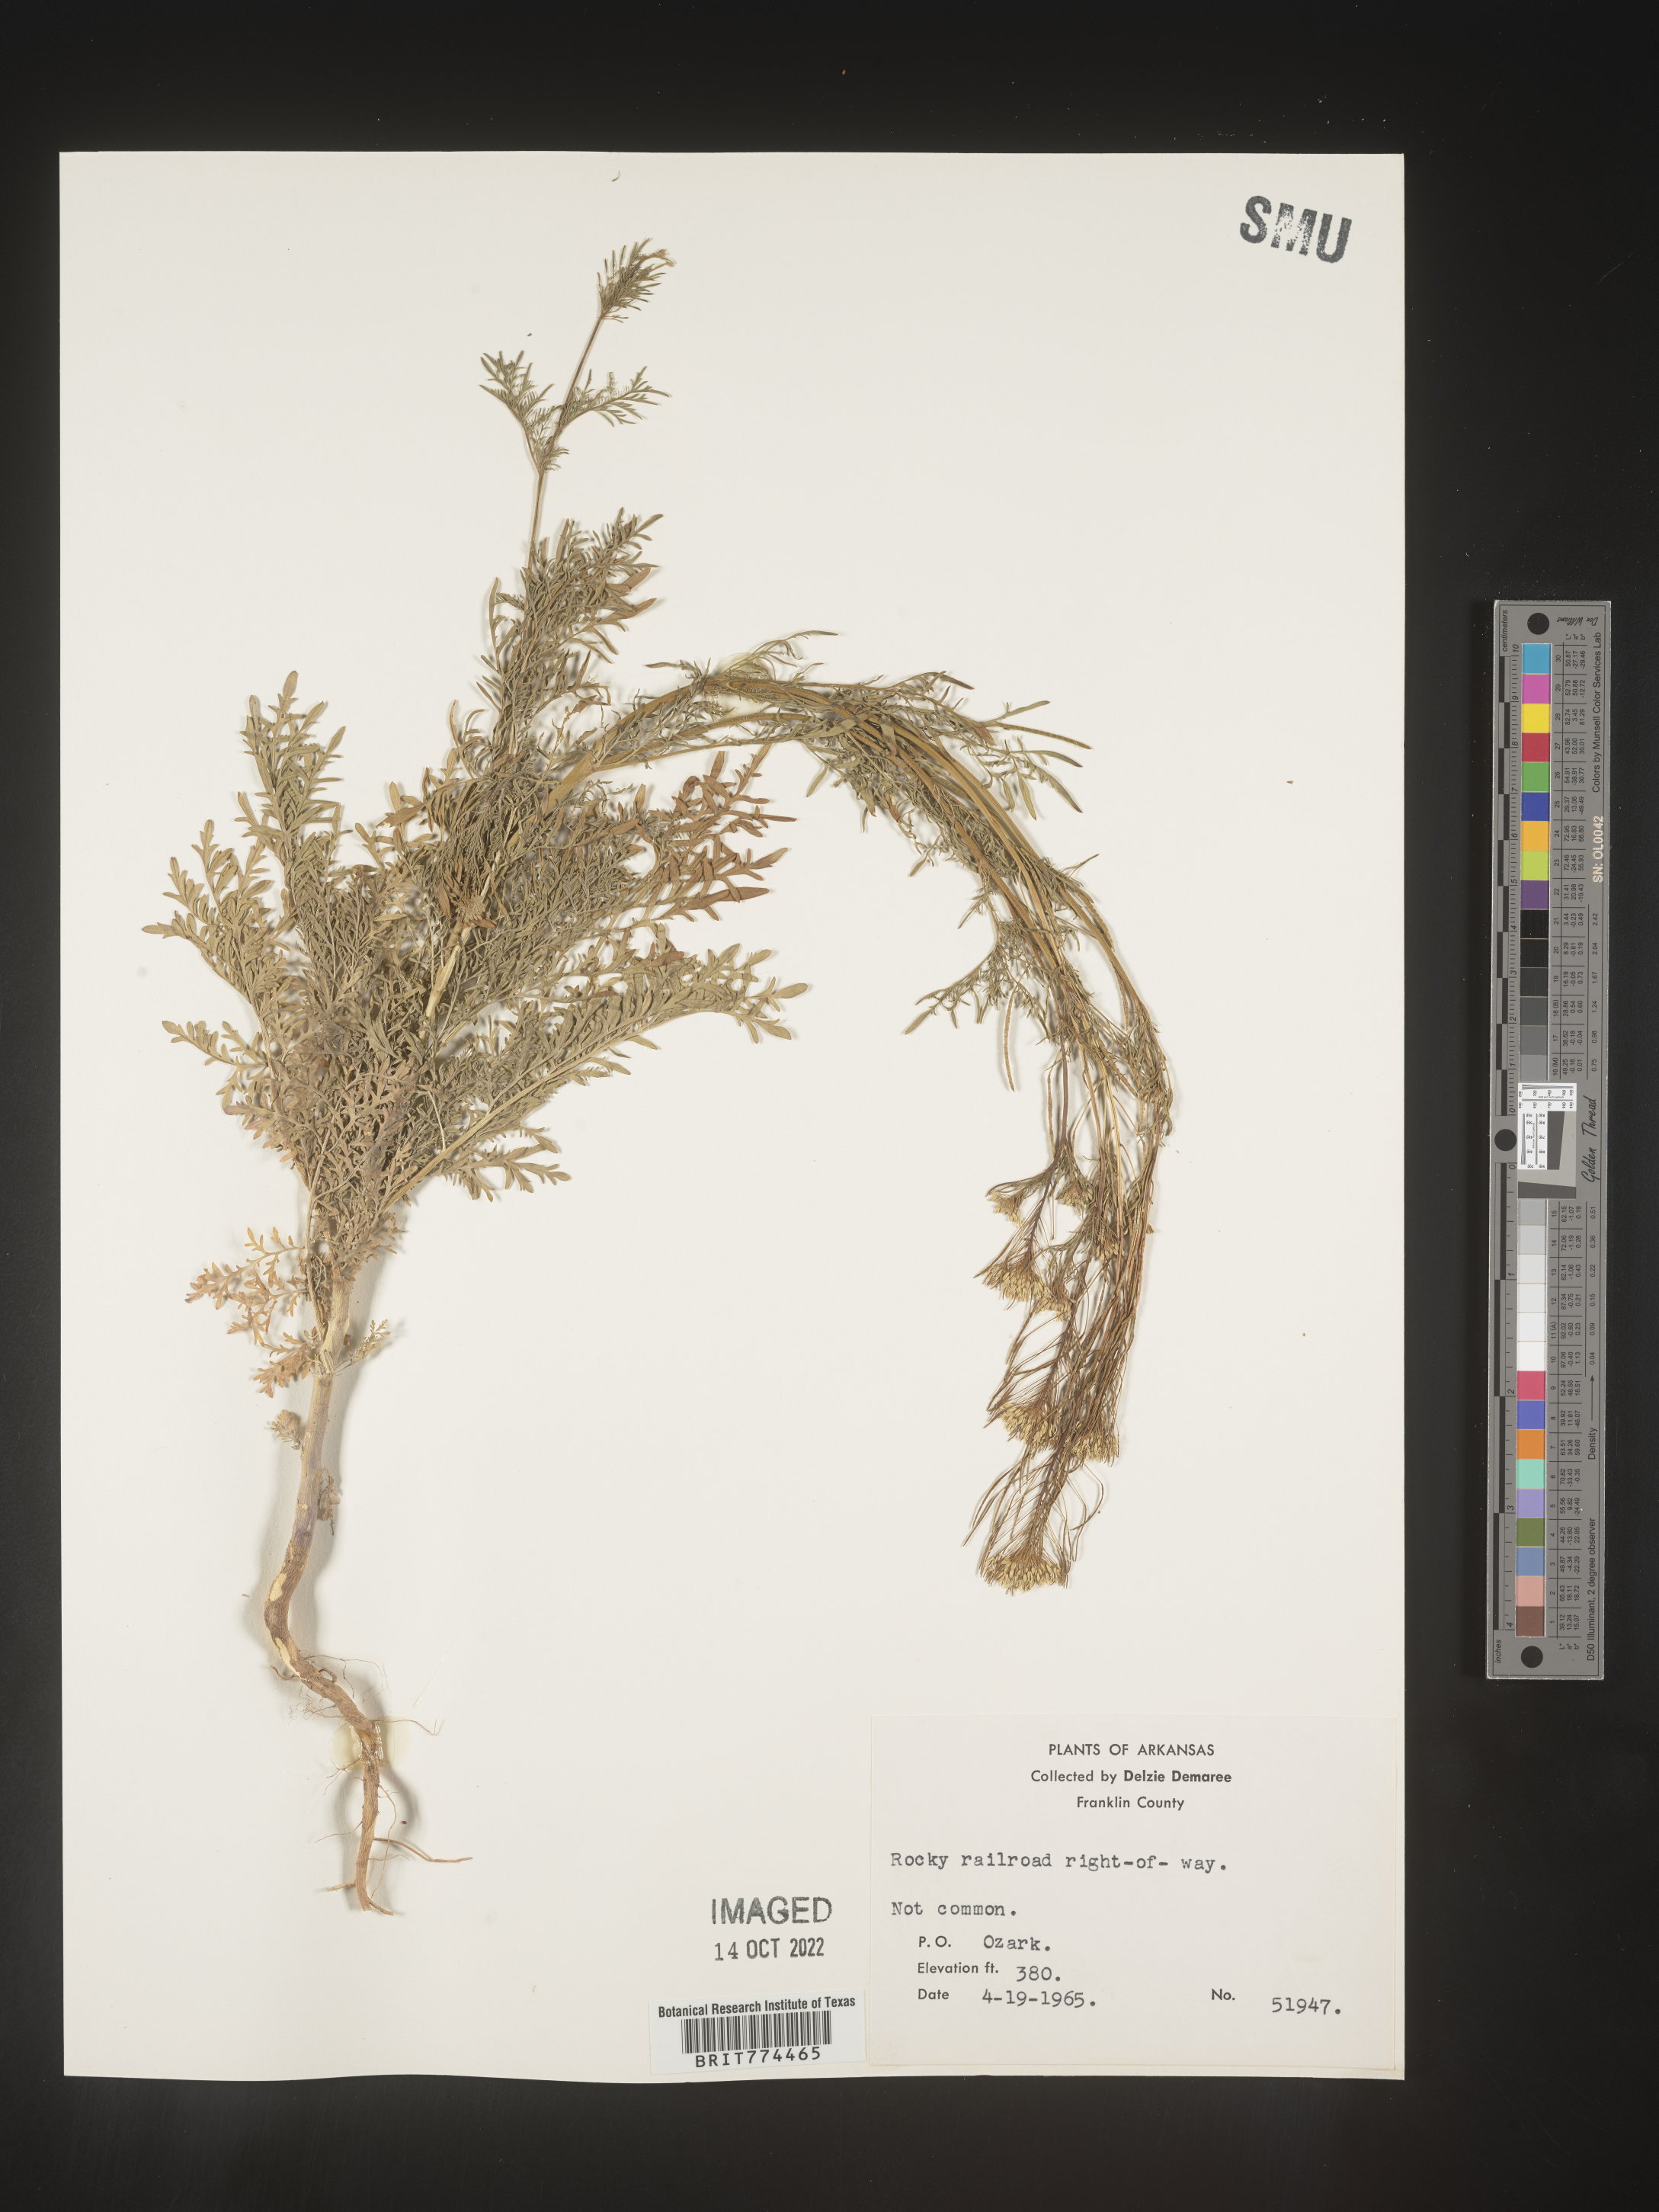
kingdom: Plantae
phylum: Tracheophyta
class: Magnoliopsida
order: Brassicales
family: Brassicaceae
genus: Descurainia
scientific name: Descurainia sophia
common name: Flixweed
